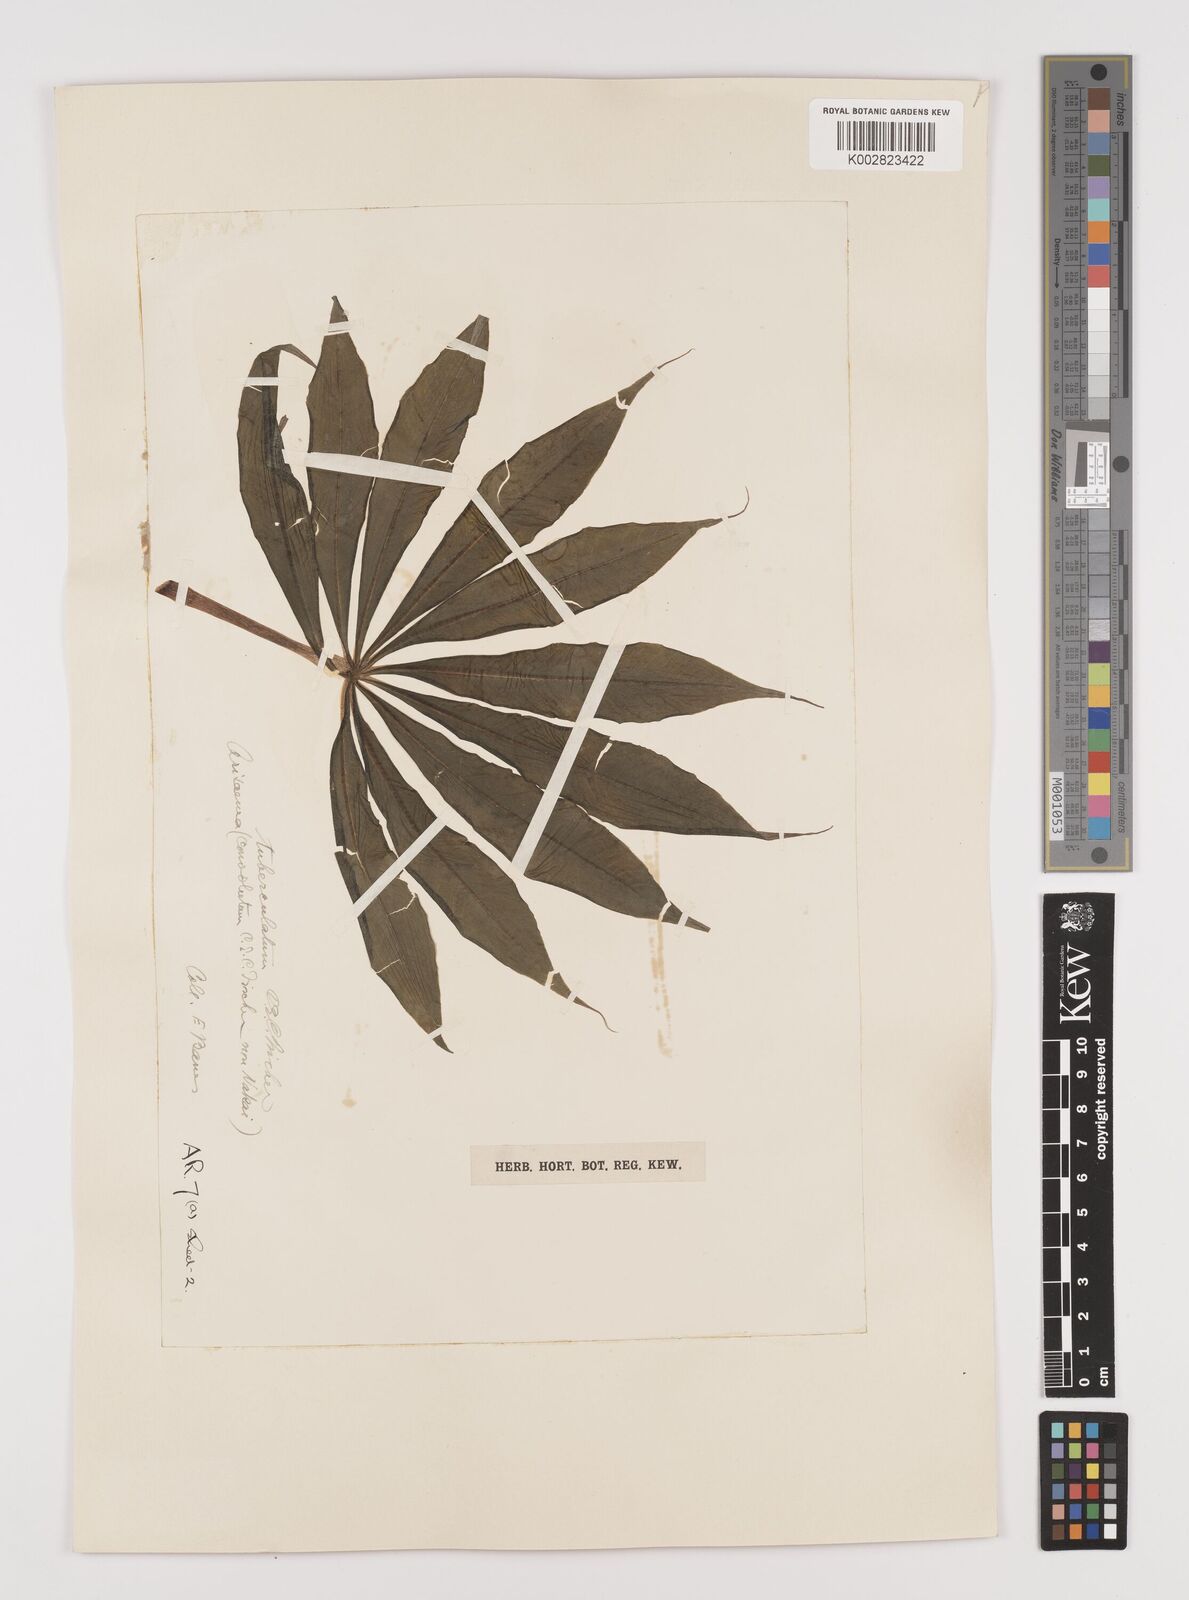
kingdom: Plantae
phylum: Tracheophyta
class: Liliopsida
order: Alismatales
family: Araceae
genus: Arisaema
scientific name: Arisaema tuberculatum
